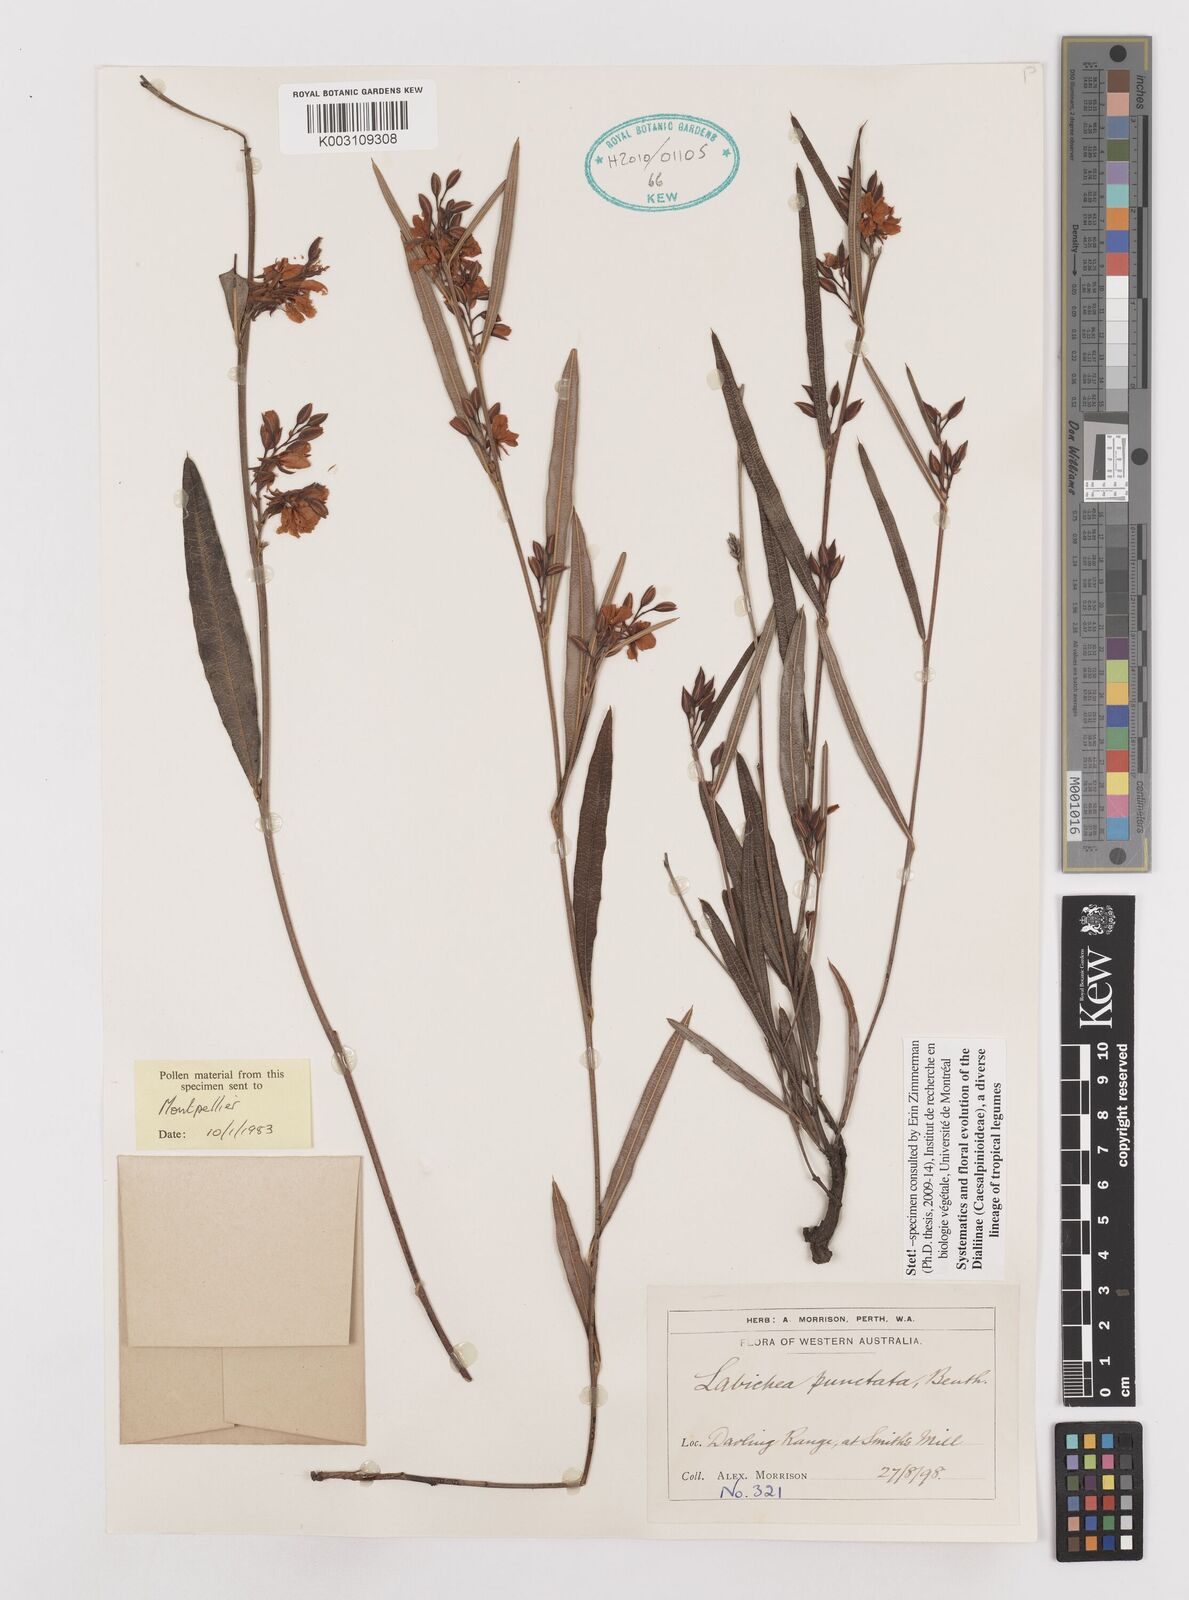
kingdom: Plantae
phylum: Tracheophyta
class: Magnoliopsida
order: Fabales
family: Fabaceae
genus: Labichea
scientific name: Labichea punctata
